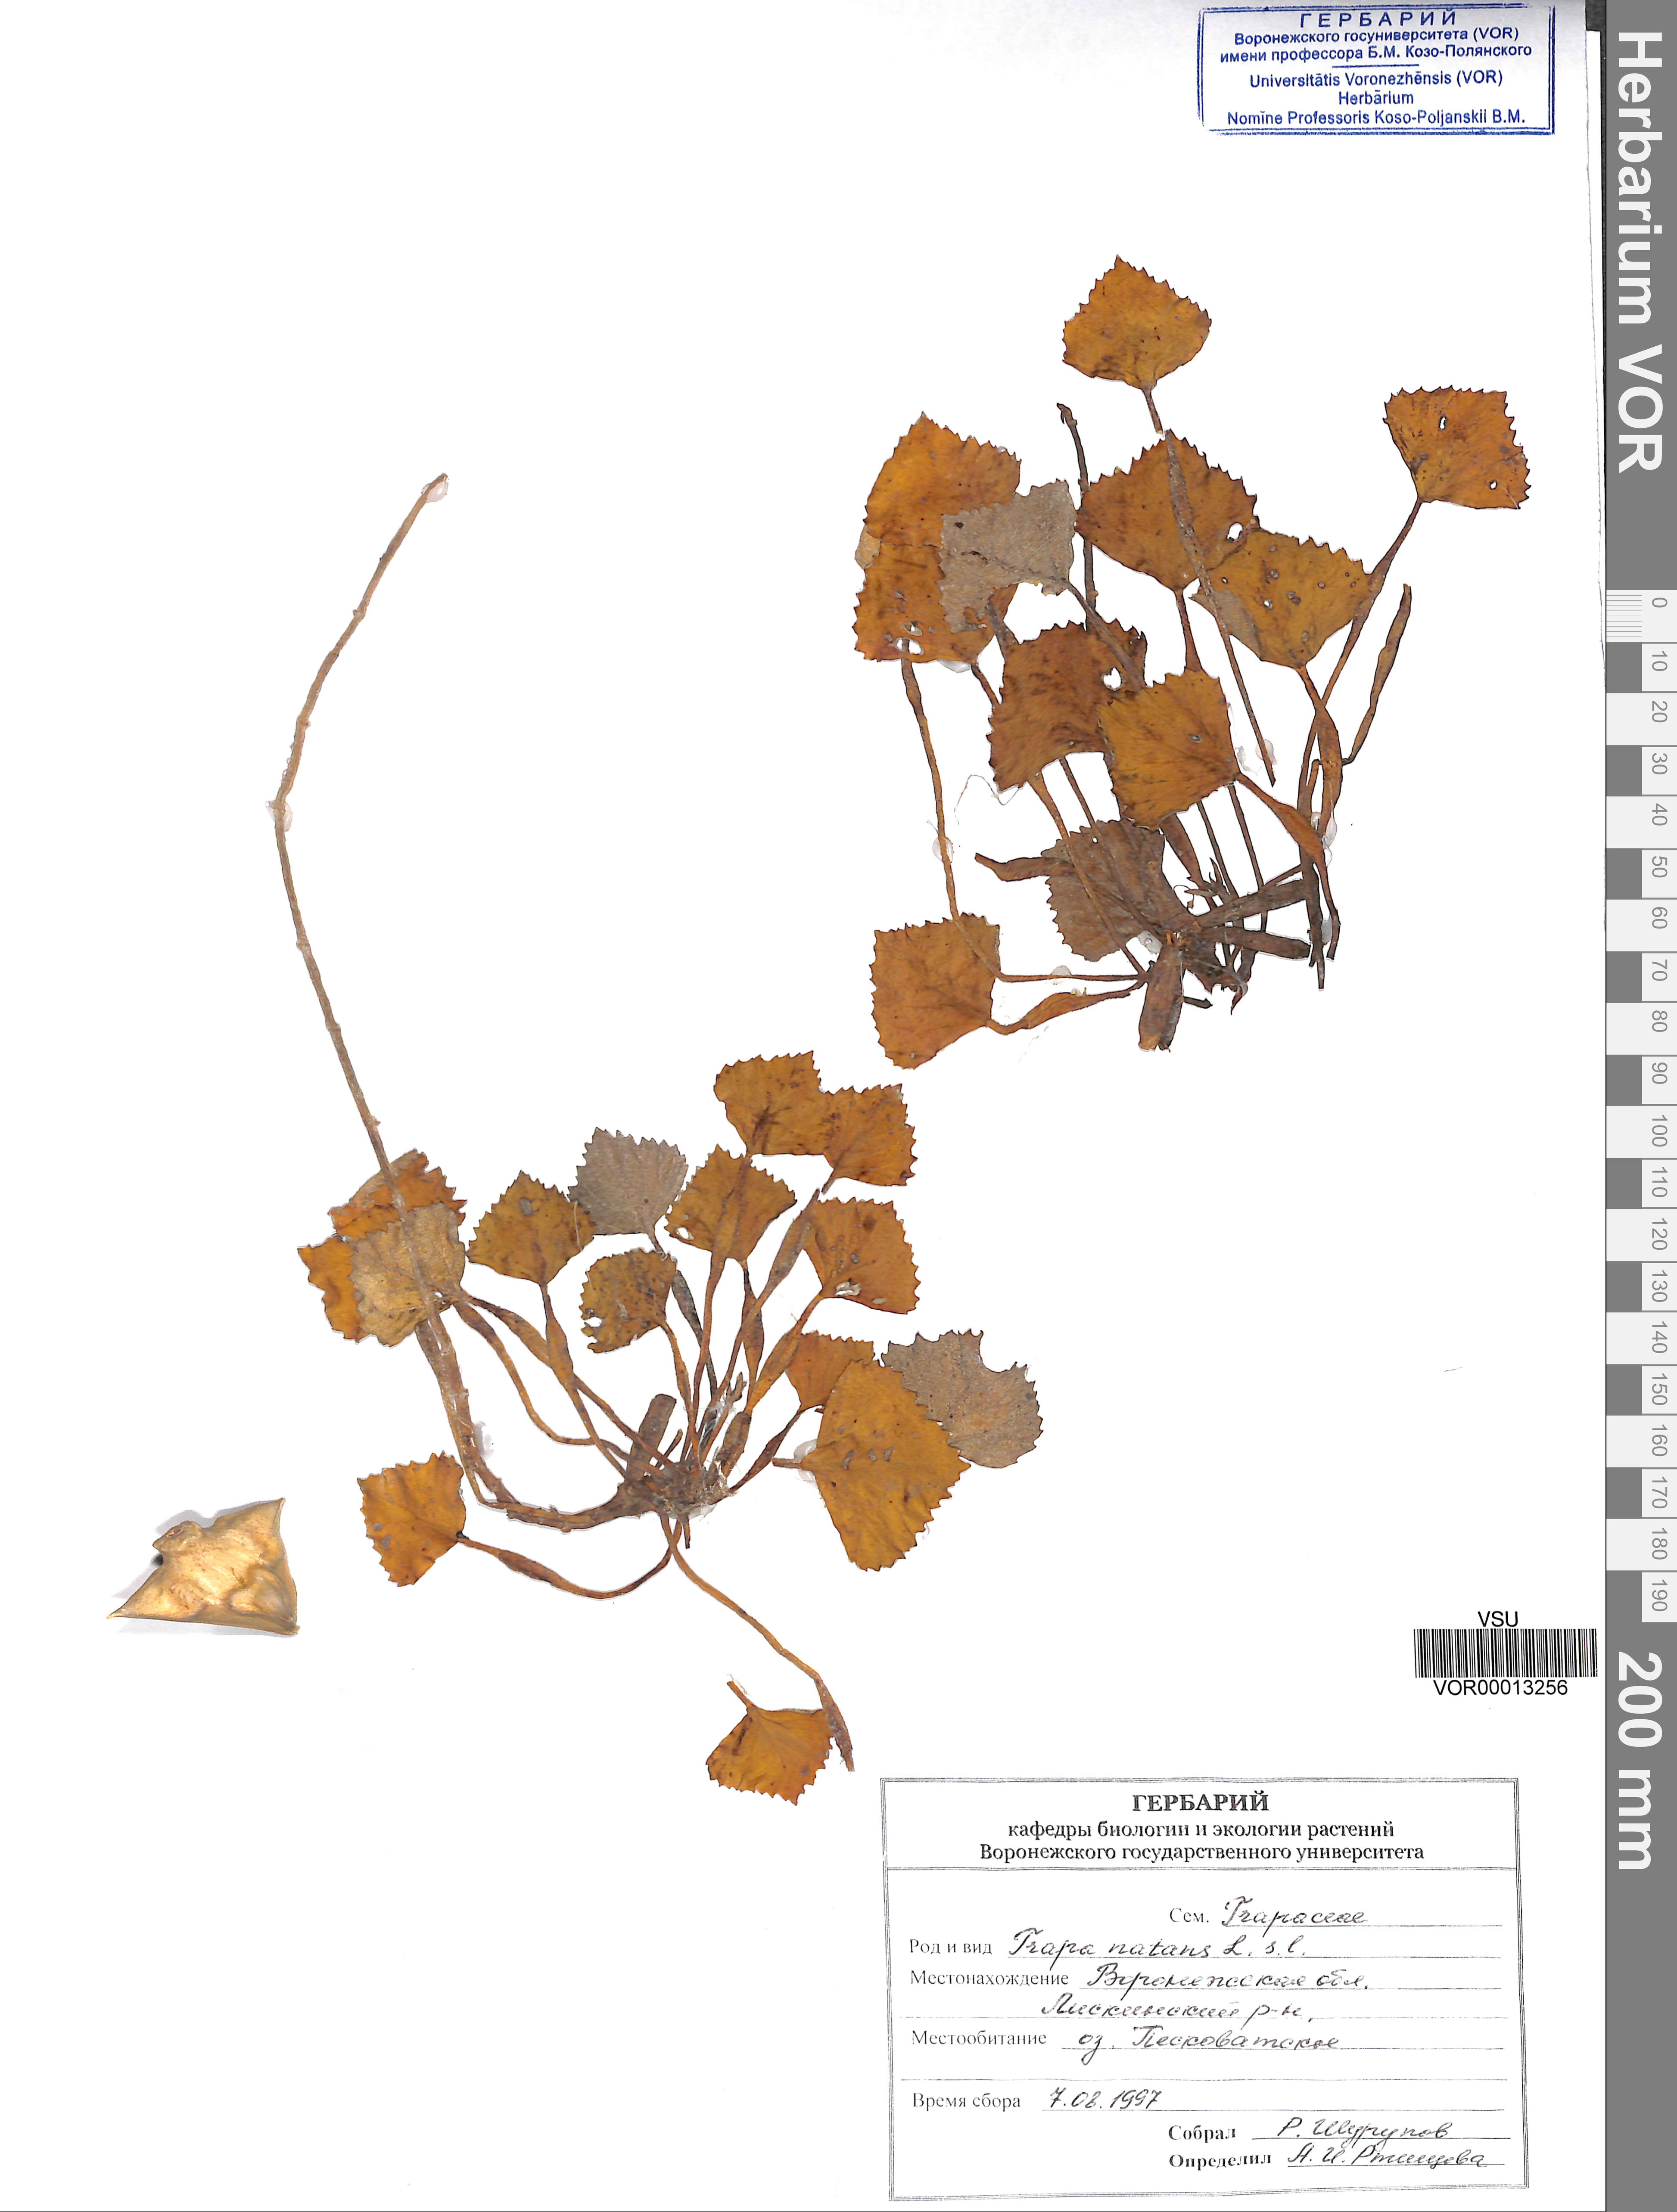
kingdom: Plantae
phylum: Tracheophyta
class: Magnoliopsida
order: Myrtales
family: Lythraceae
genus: Trapa
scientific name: Trapa natans
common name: Water chestnut
